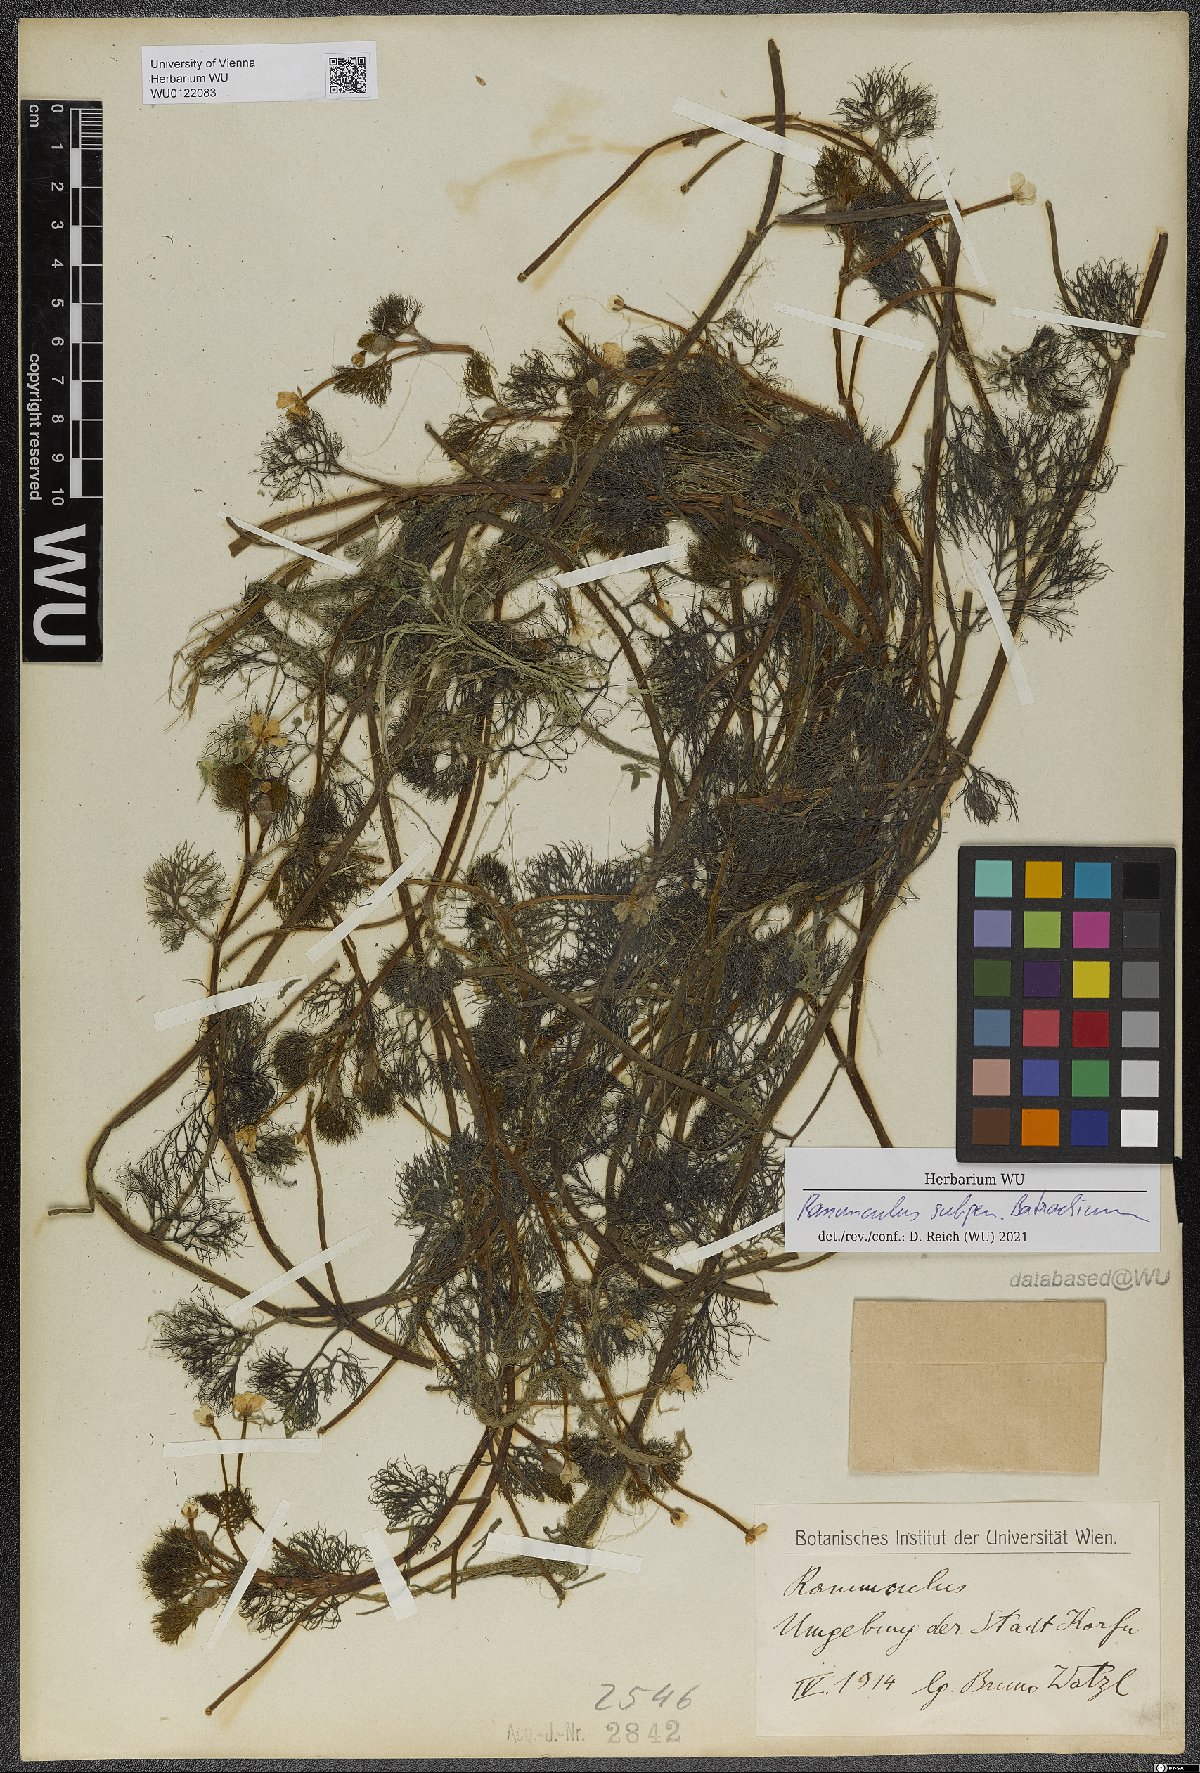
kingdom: Plantae
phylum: Tracheophyta
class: Magnoliopsida
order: Ranunculales
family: Ranunculaceae
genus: Ranunculus
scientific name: Ranunculus
